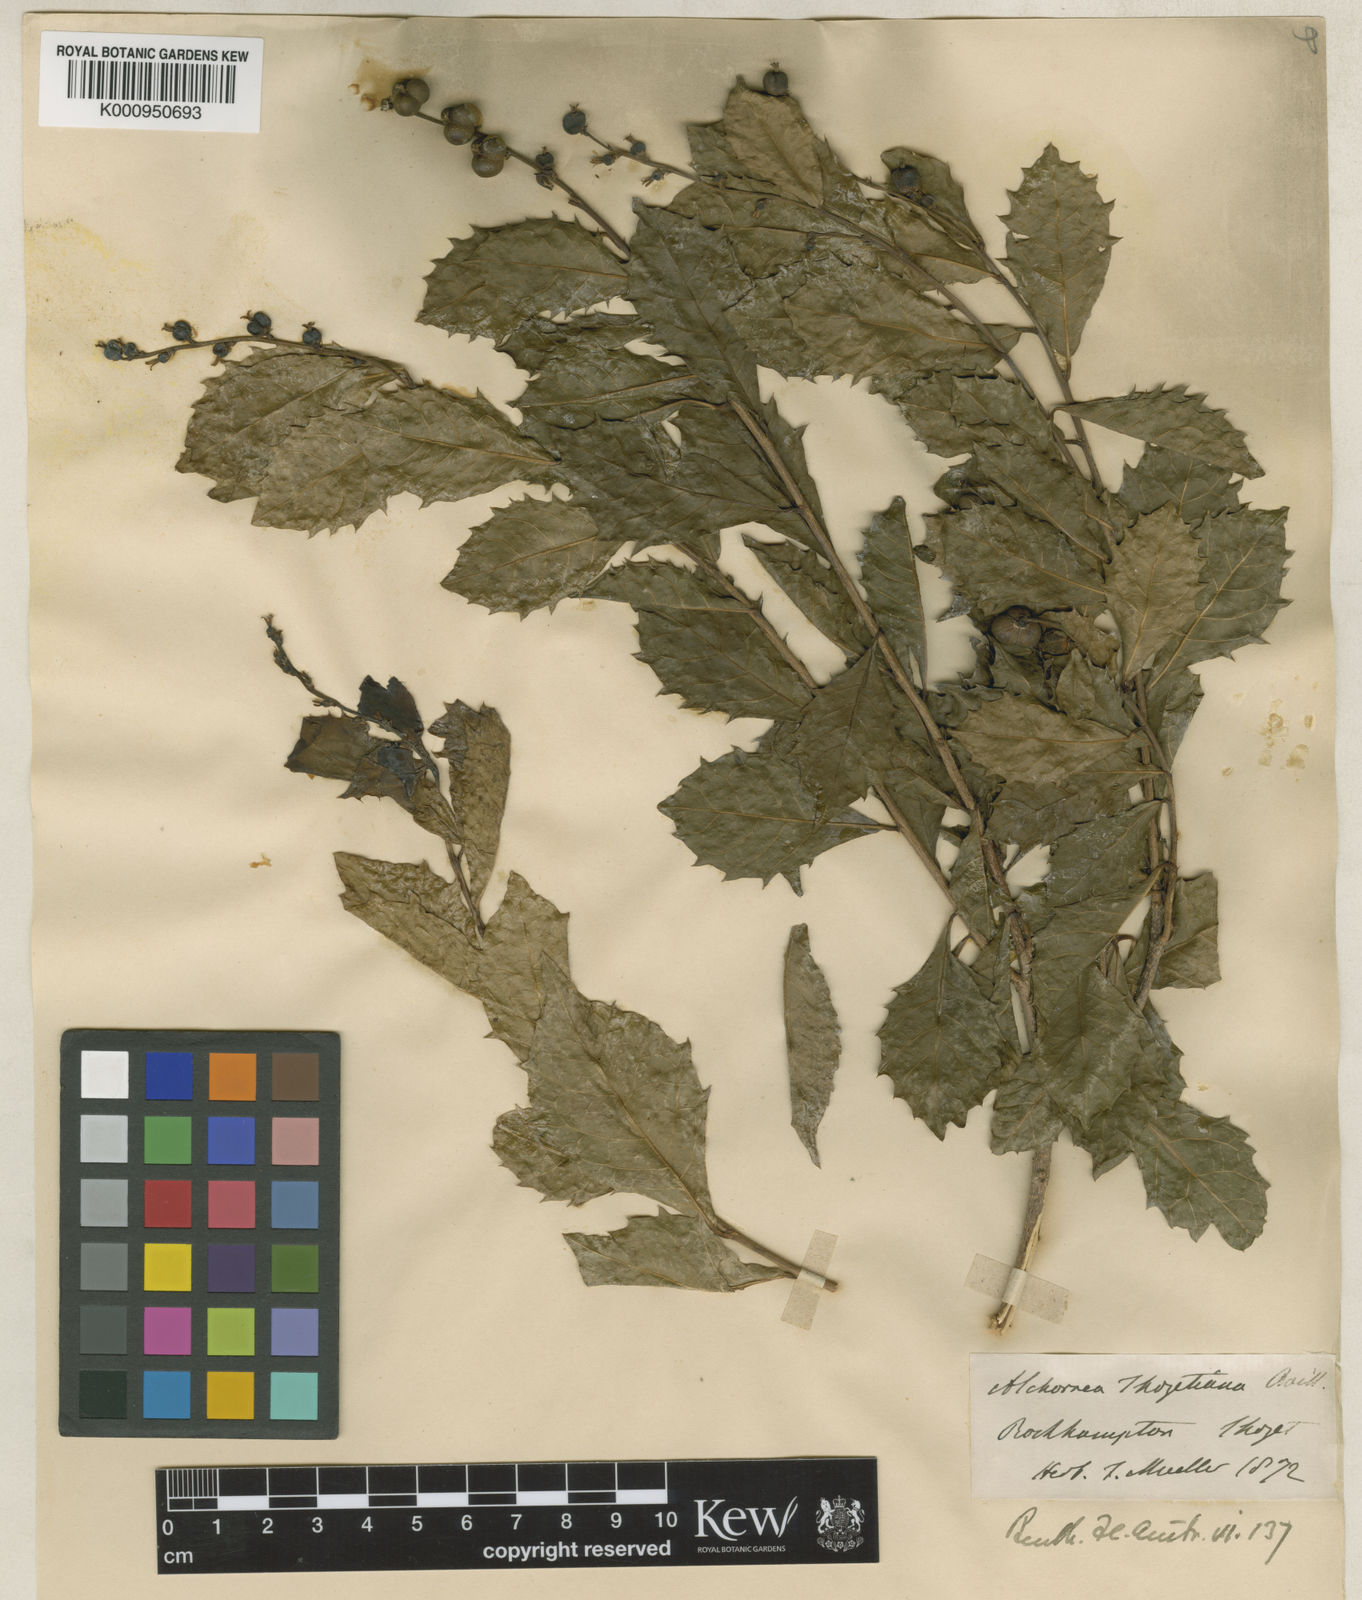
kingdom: Plantae
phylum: Tracheophyta
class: Magnoliopsida
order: Malpighiales
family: Euphorbiaceae
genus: Alchornea
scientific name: Alchornea ilicifolia
